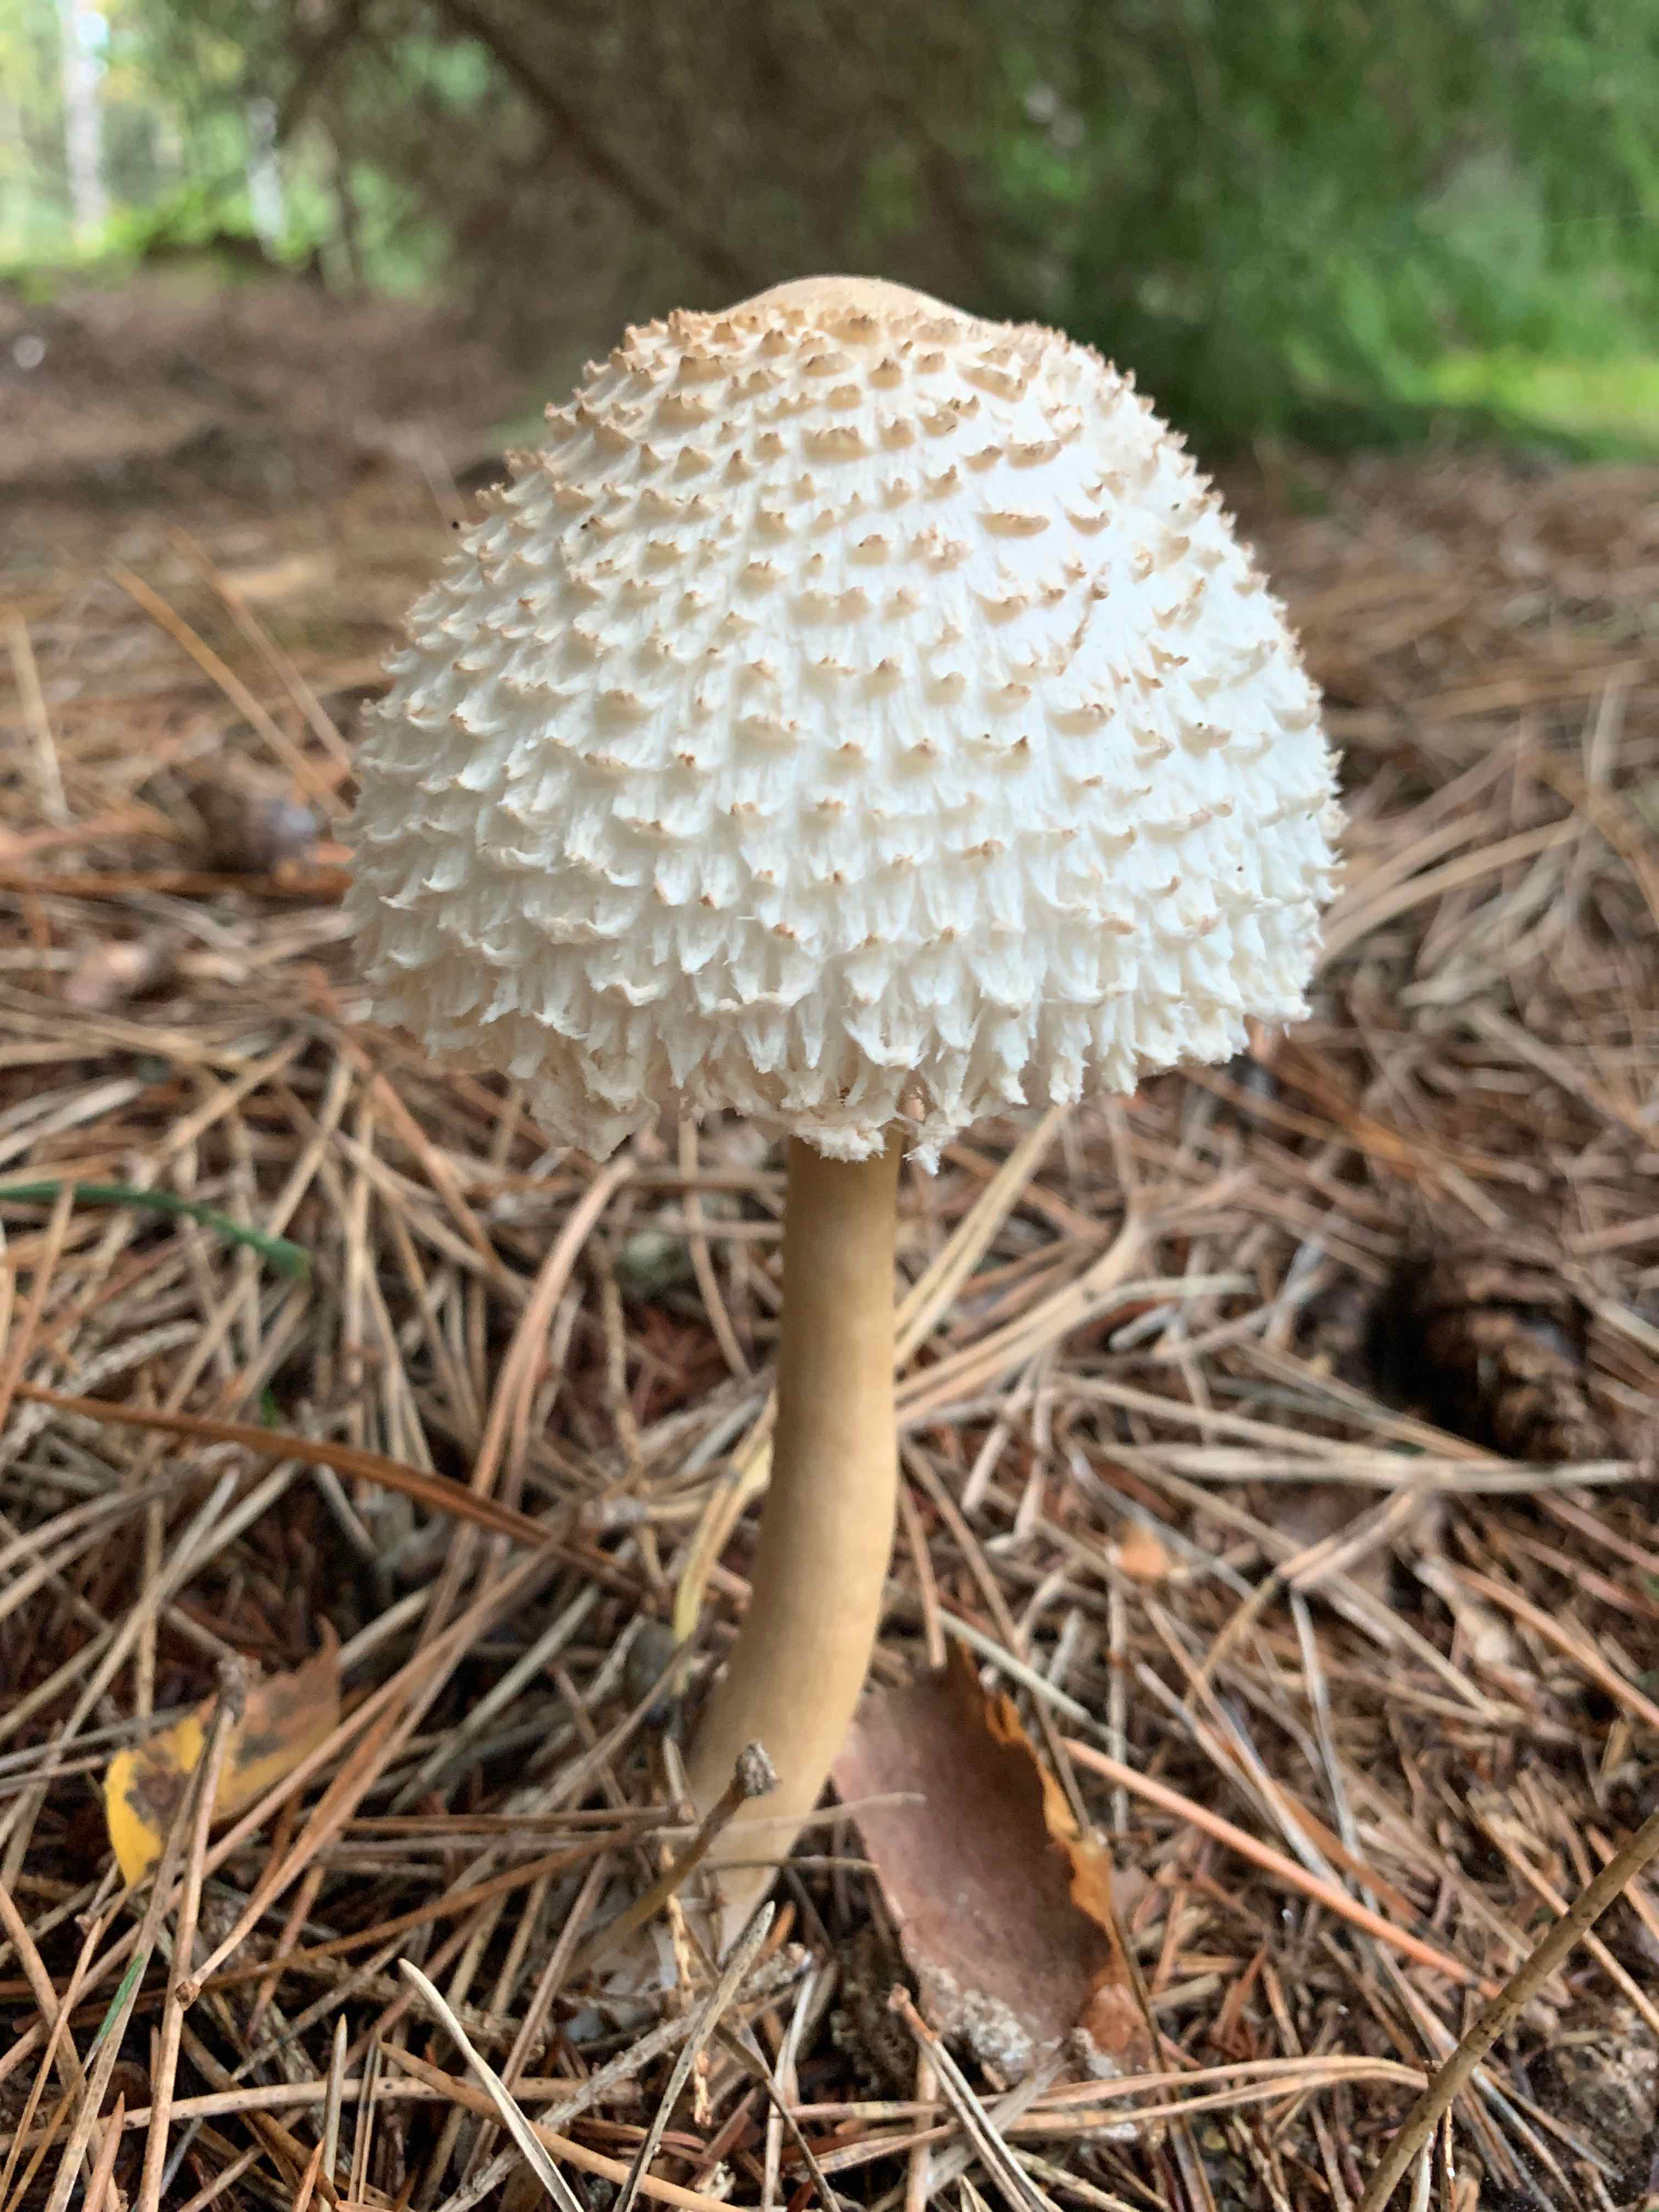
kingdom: Fungi
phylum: Basidiomycota
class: Agaricomycetes
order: Agaricales
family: Agaricaceae
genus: Leucoagaricus
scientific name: Leucoagaricus nympharum
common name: gran-silkehat
